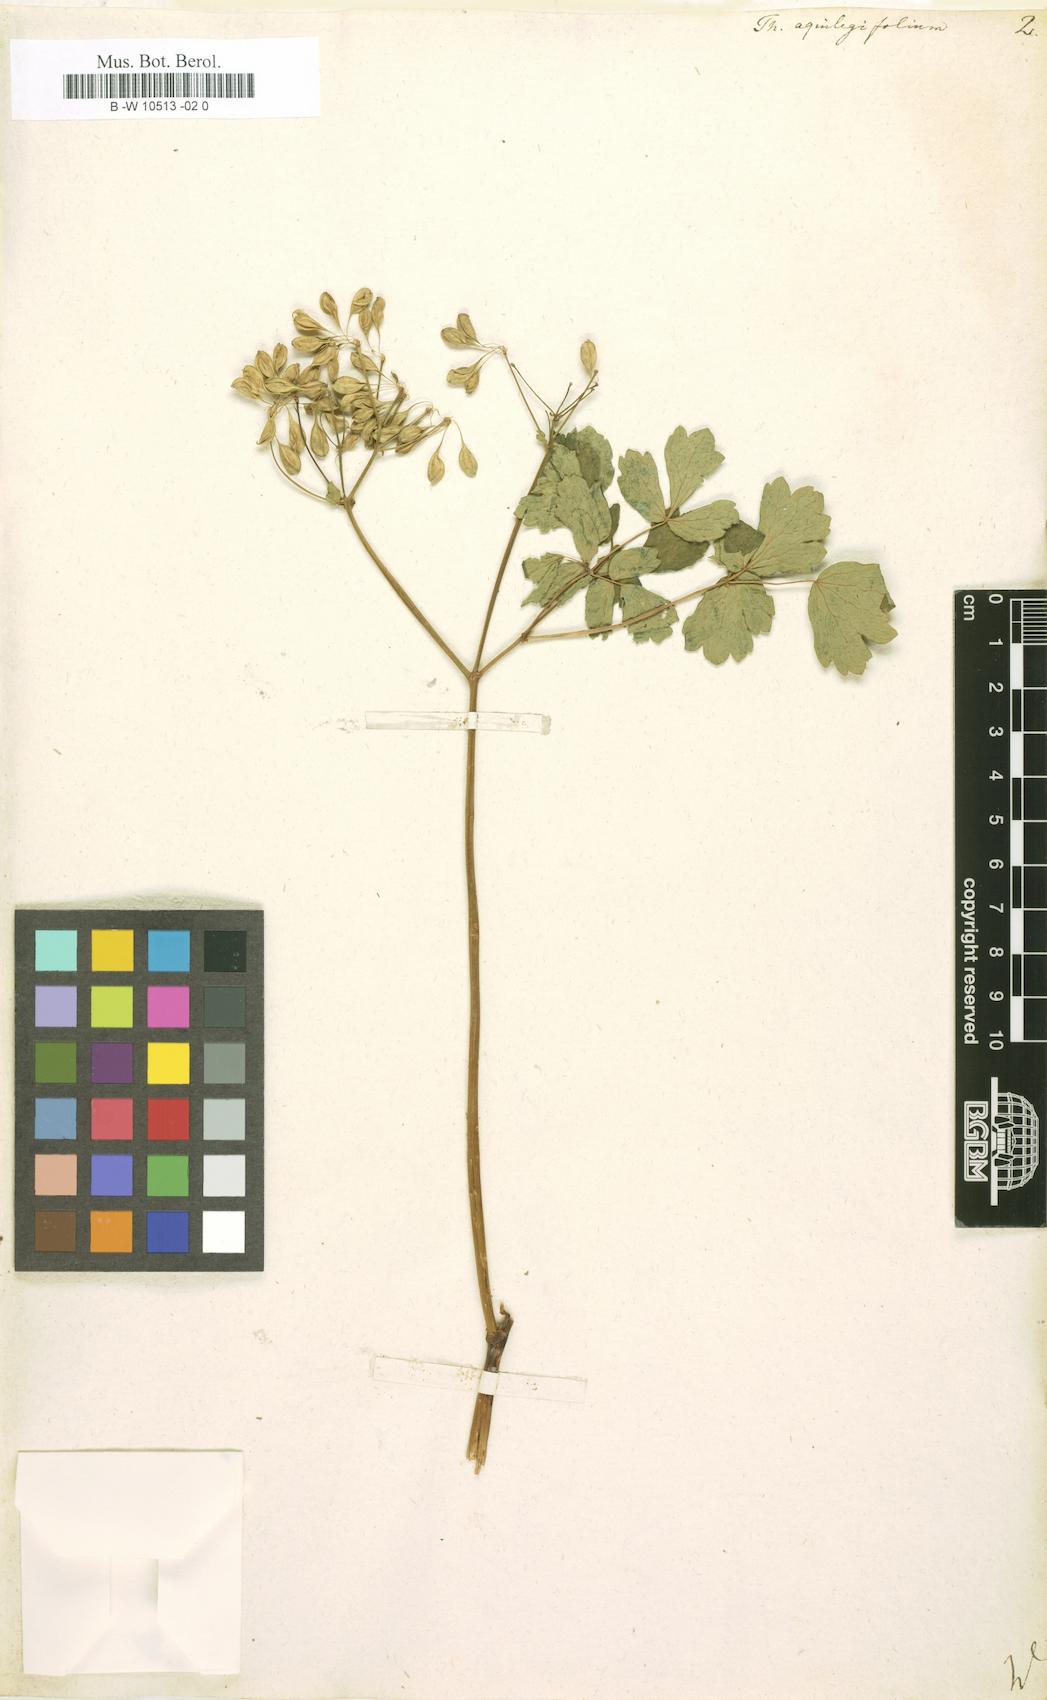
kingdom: Plantae
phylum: Tracheophyta
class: Magnoliopsida
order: Ranunculales
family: Ranunculaceae
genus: Thalictrum
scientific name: Thalictrum aquilegiifolium
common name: French meadow-rue
